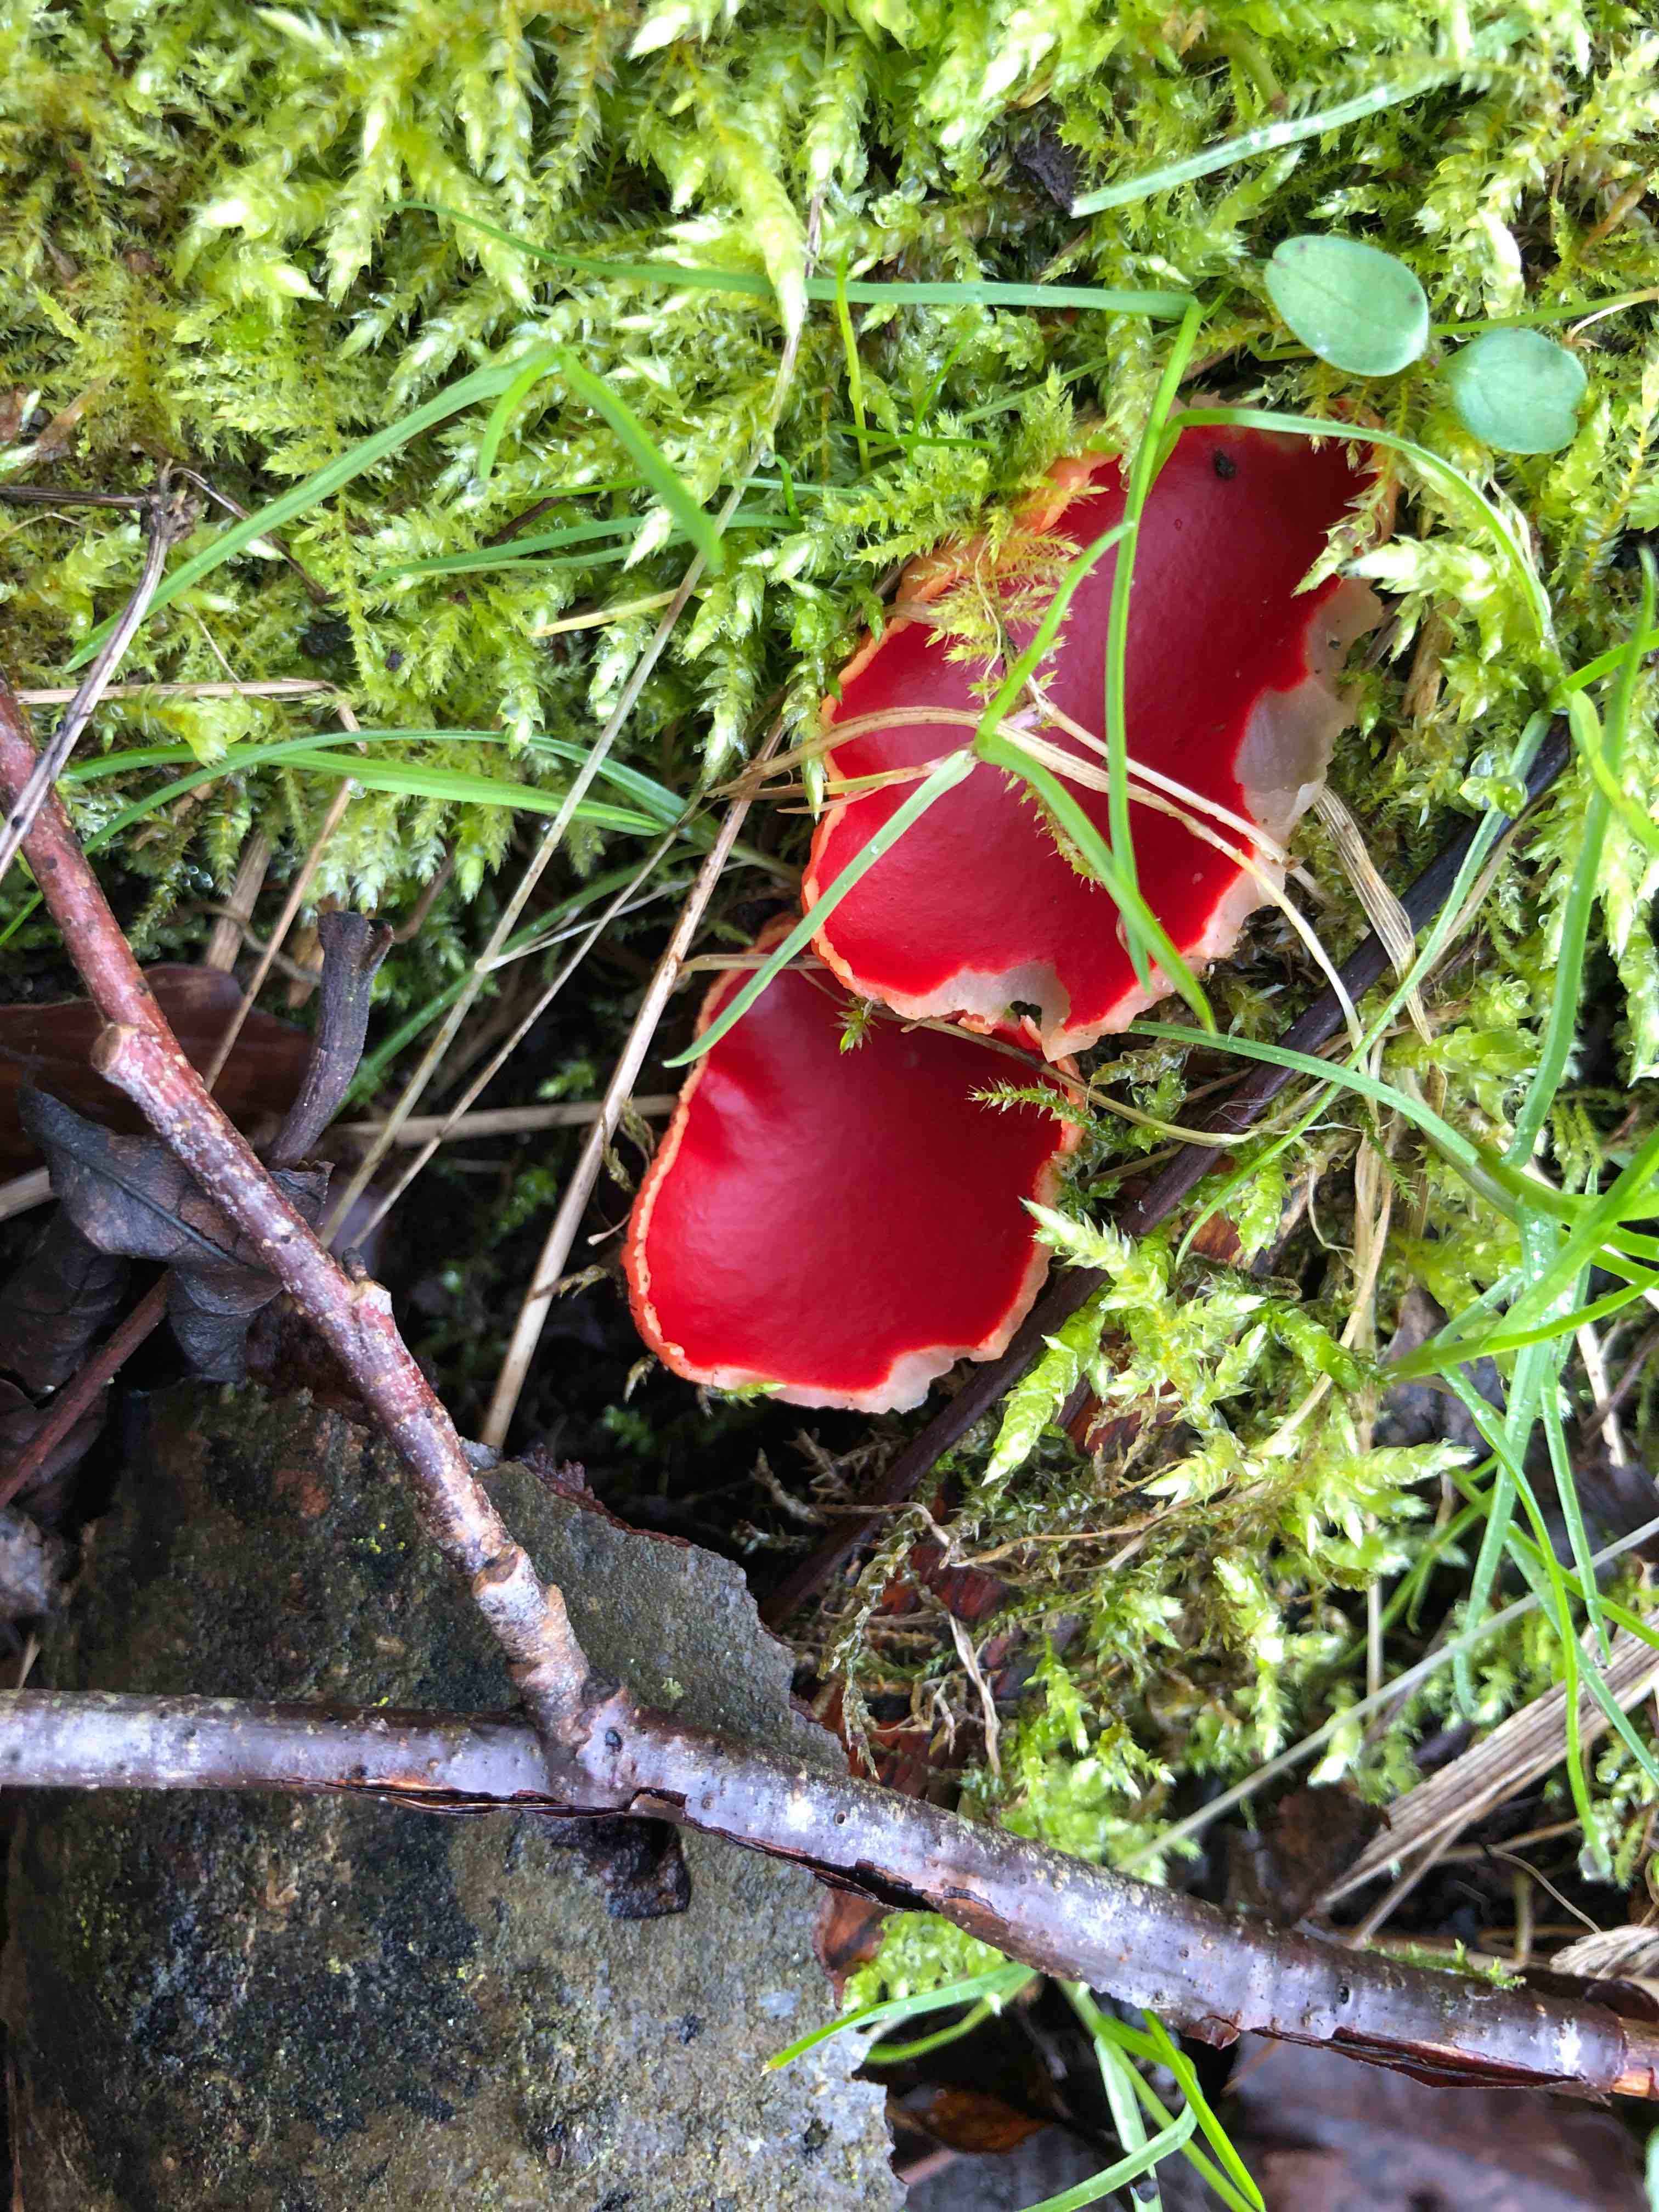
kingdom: Fungi
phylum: Ascomycota
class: Pezizomycetes
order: Pezizales
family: Sarcoscyphaceae
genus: Sarcoscypha
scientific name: Sarcoscypha austriaca
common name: krølhåret pragtbæger
